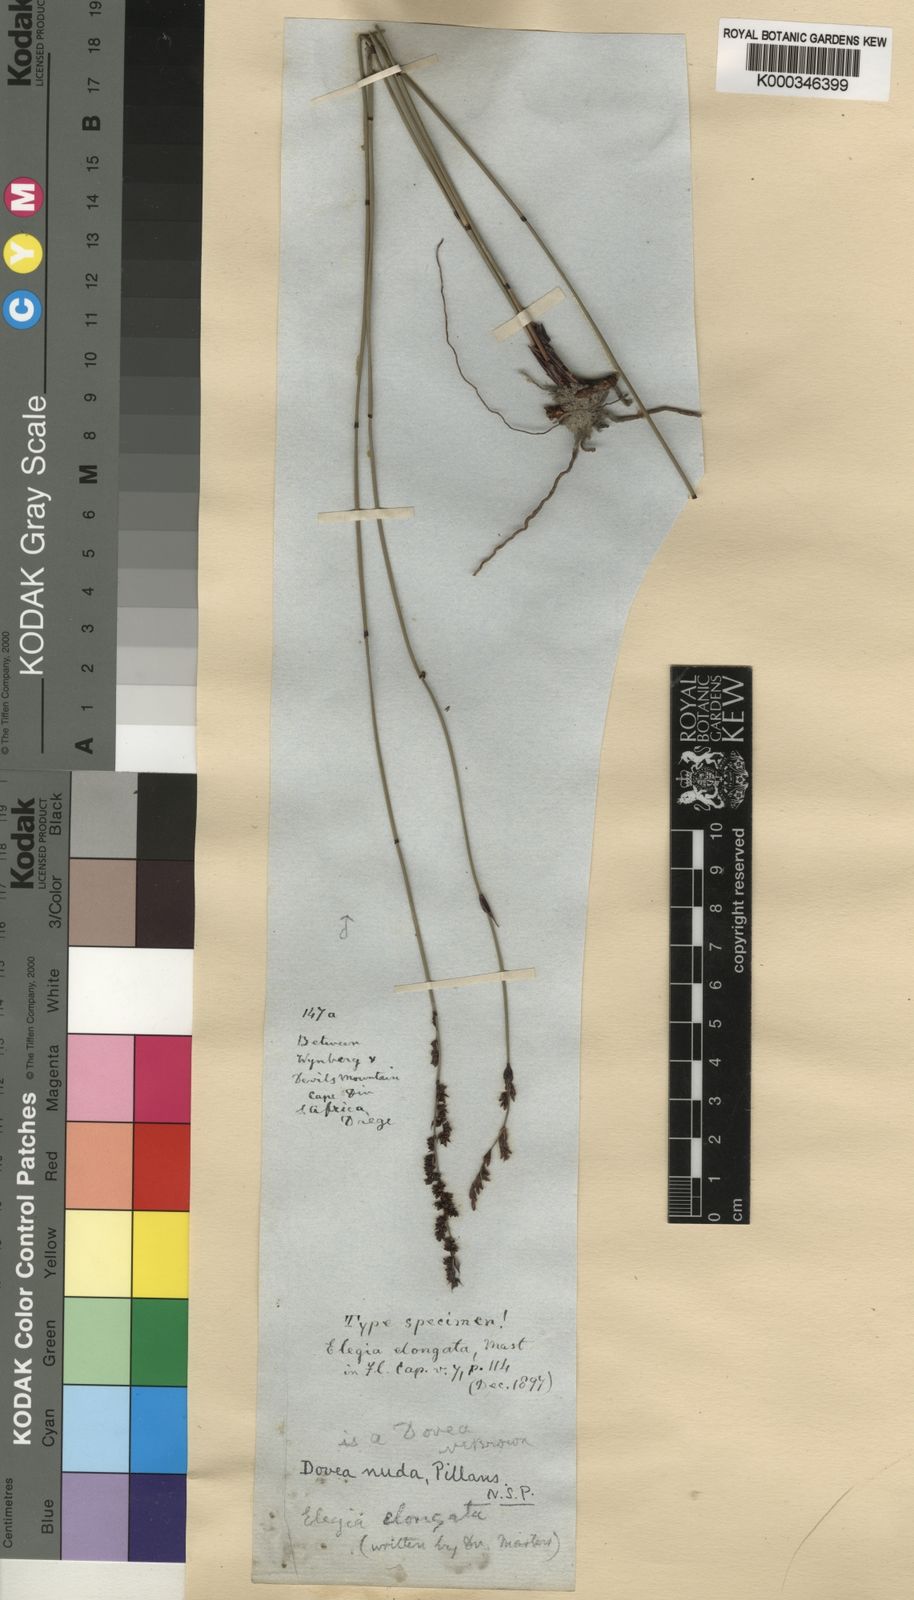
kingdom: Plantae
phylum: Tracheophyta
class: Liliopsida
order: Poales
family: Restionaceae
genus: Elegia
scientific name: Elegia nuda
